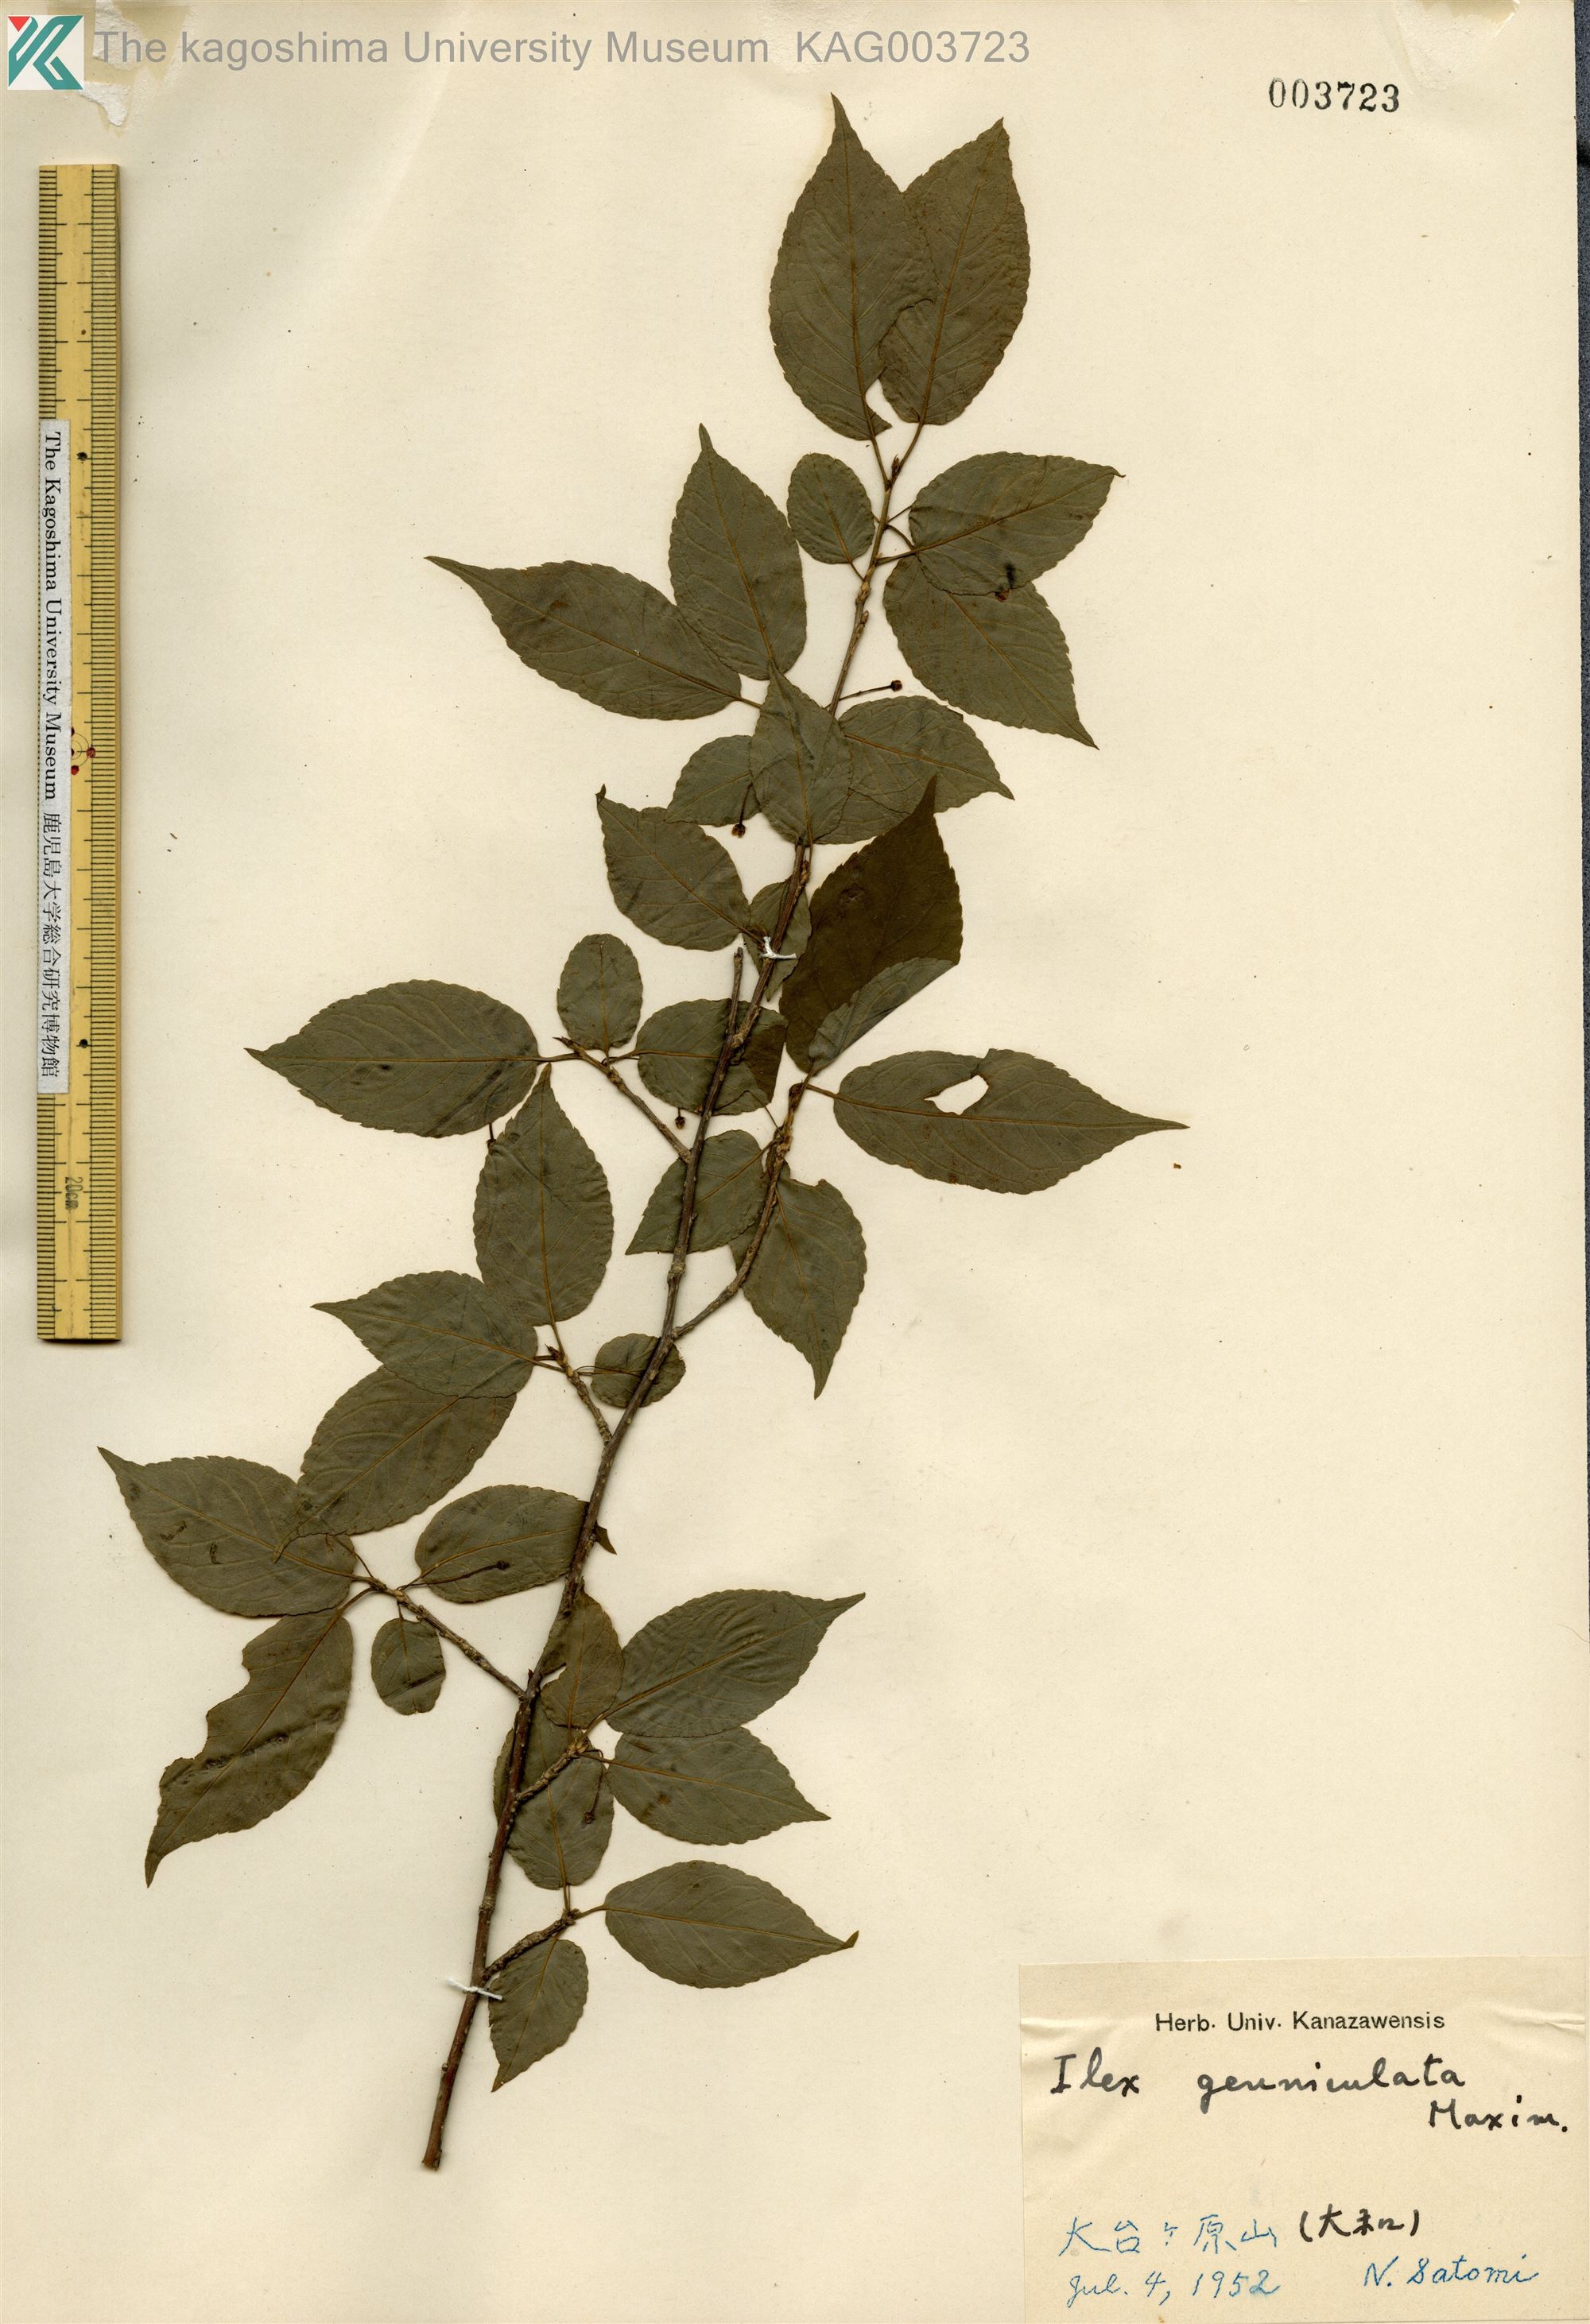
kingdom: Plantae
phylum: Tracheophyta
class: Magnoliopsida
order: Aquifoliales
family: Aquifoliaceae
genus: Ilex
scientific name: Ilex geniculata
